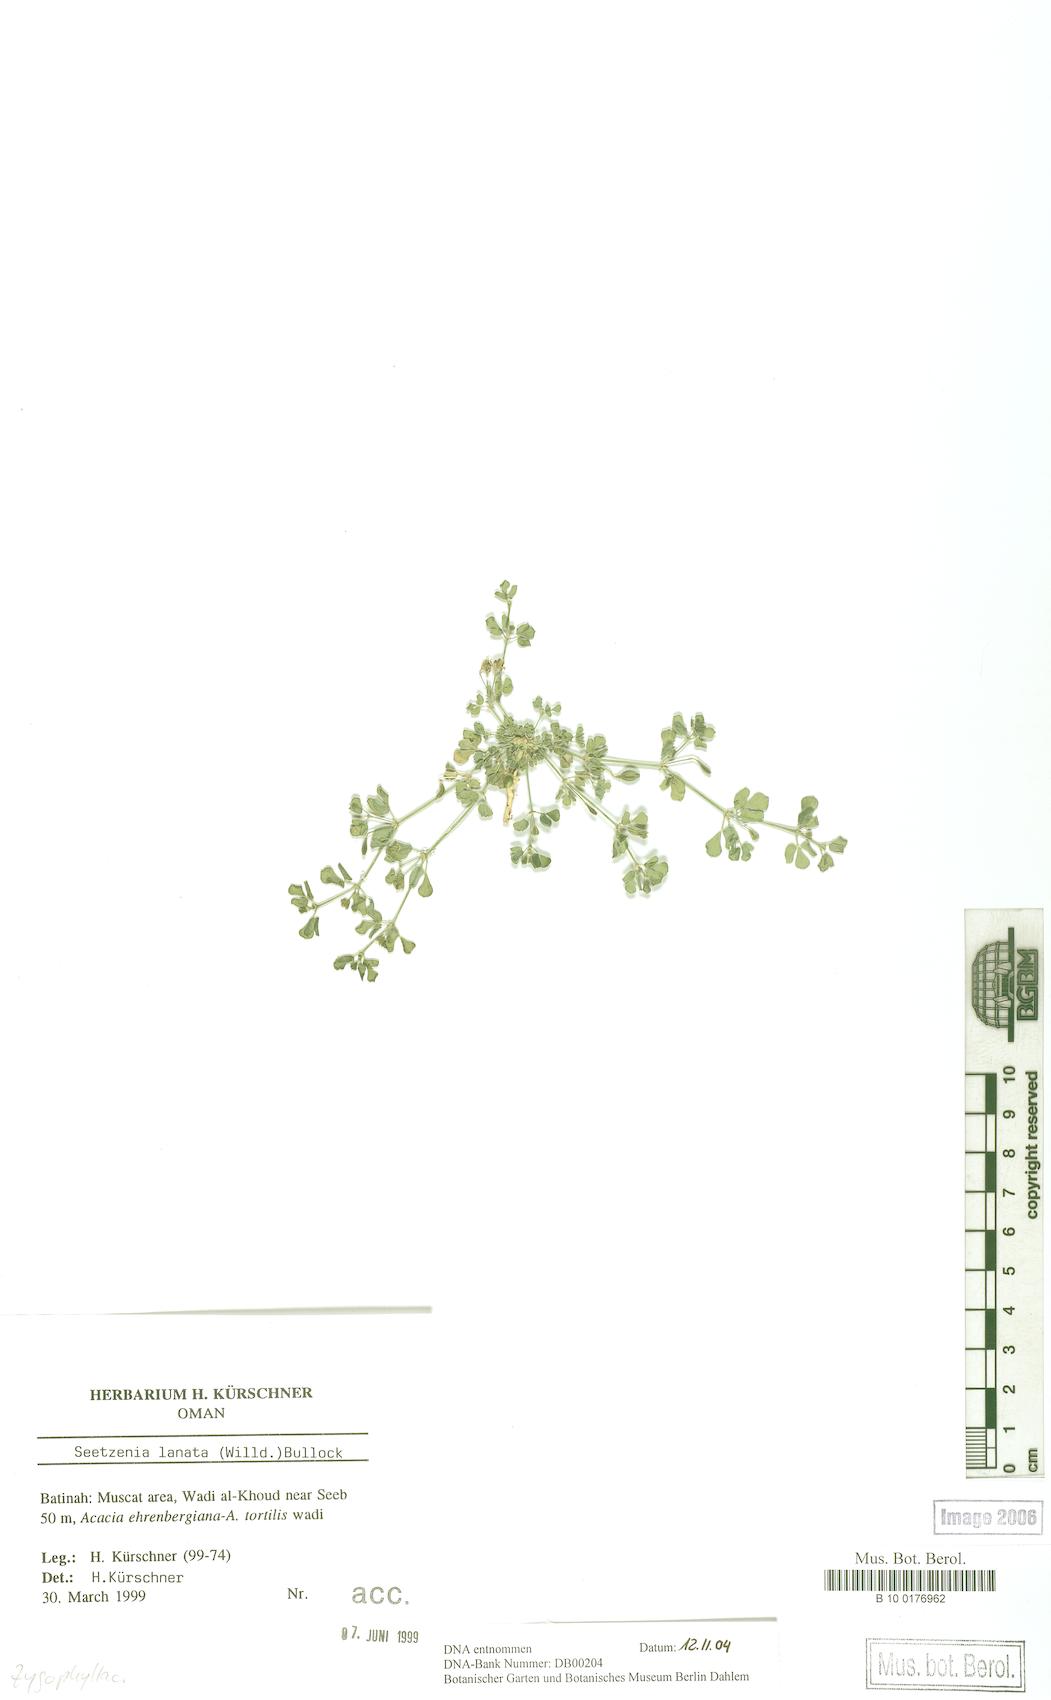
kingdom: Plantae
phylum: Tracheophyta
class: Magnoliopsida
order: Zygophyllales
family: Zygophyllaceae
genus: Seetzenia
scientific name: Seetzenia lanata
